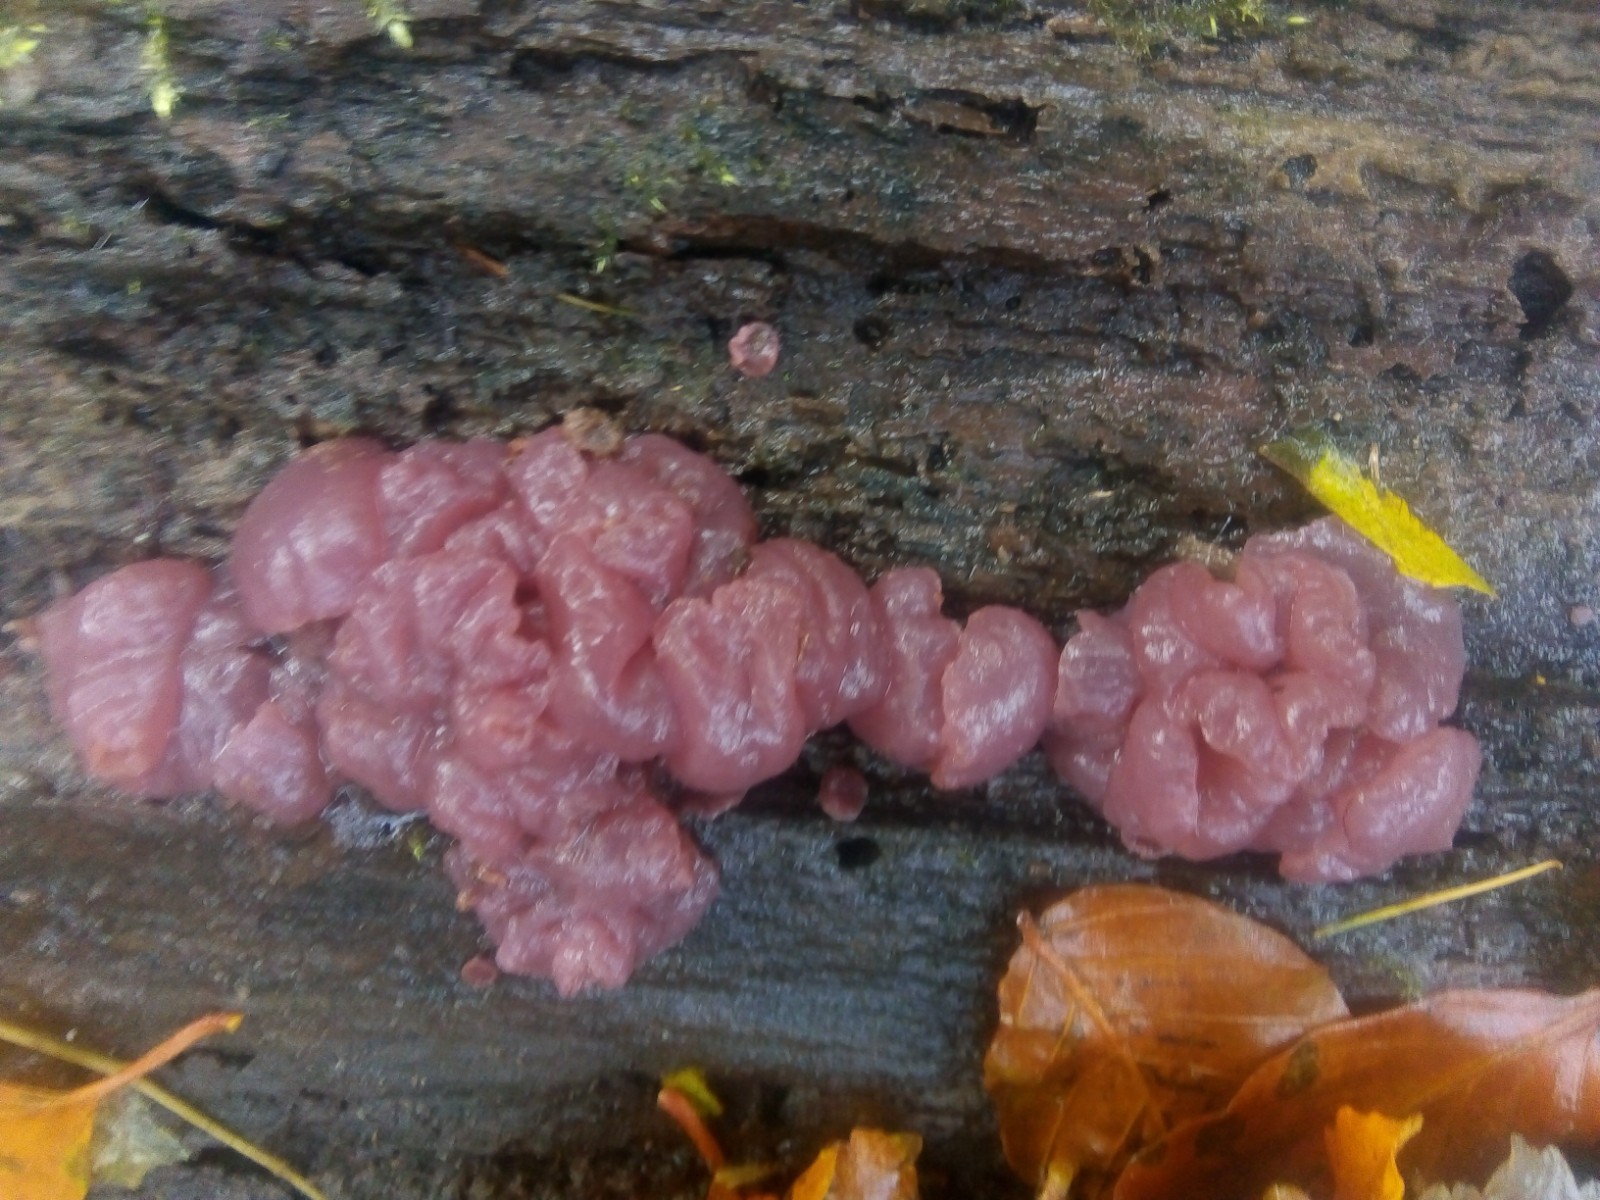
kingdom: Fungi
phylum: Ascomycota
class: Leotiomycetes
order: Helotiales
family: Gelatinodiscaceae
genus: Ascocoryne
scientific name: Ascocoryne sarcoides
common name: rødlilla sejskive
